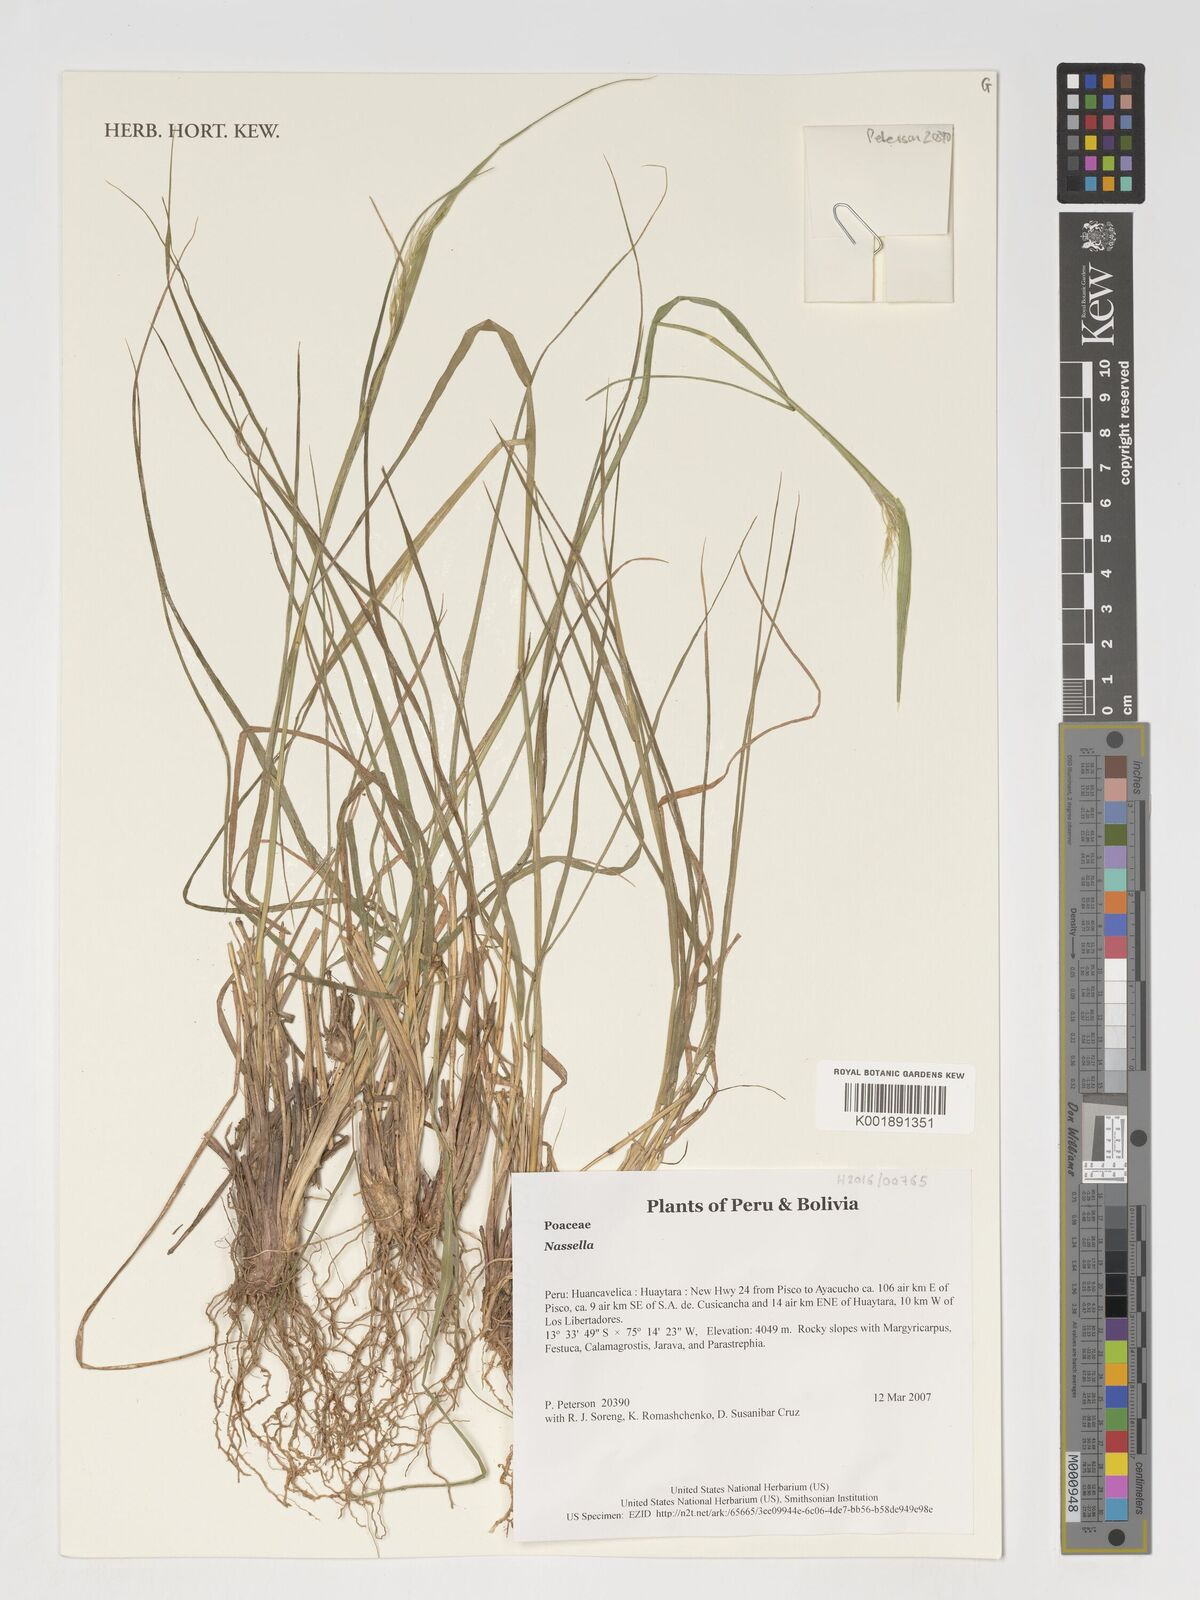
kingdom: Plantae
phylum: Tracheophyta
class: Liliopsida
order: Poales
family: Poaceae
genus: Nassella
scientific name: Nassella
